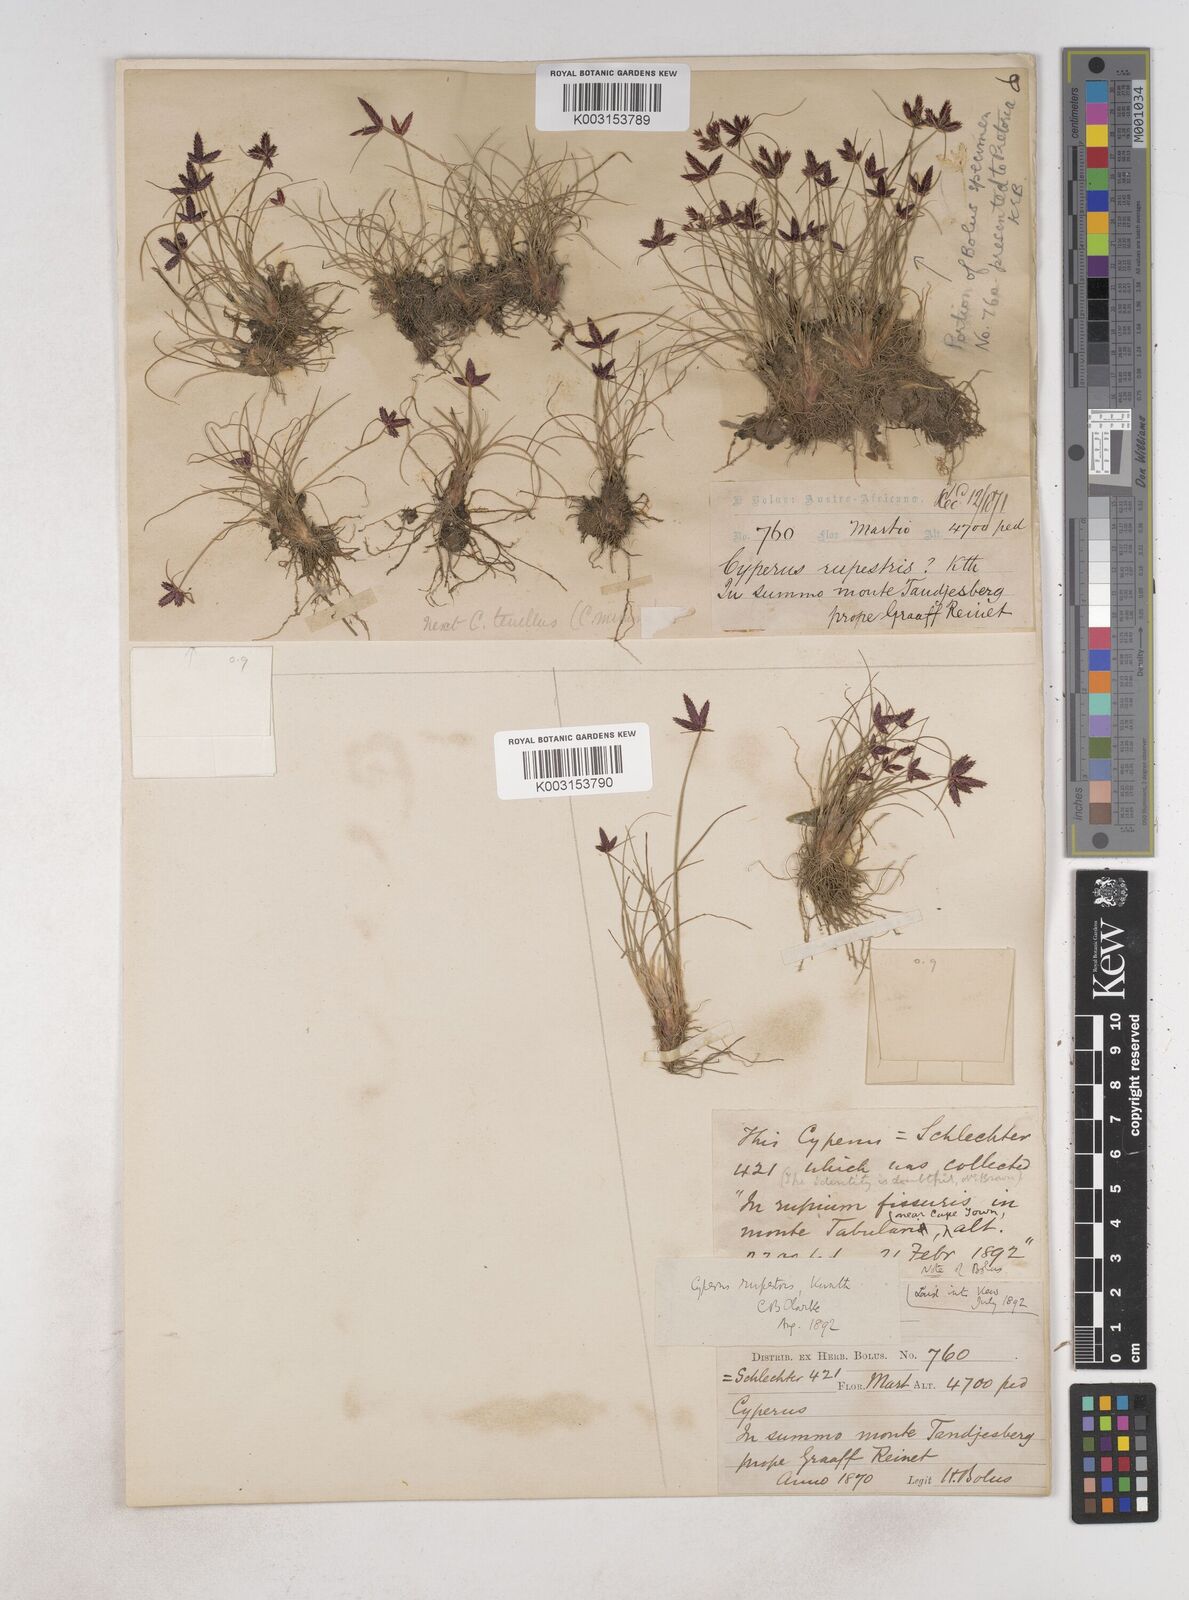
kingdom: Plantae
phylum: Tracheophyta
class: Liliopsida
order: Poales
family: Cyperaceae
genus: Cyperus
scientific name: Cyperus rupestris
